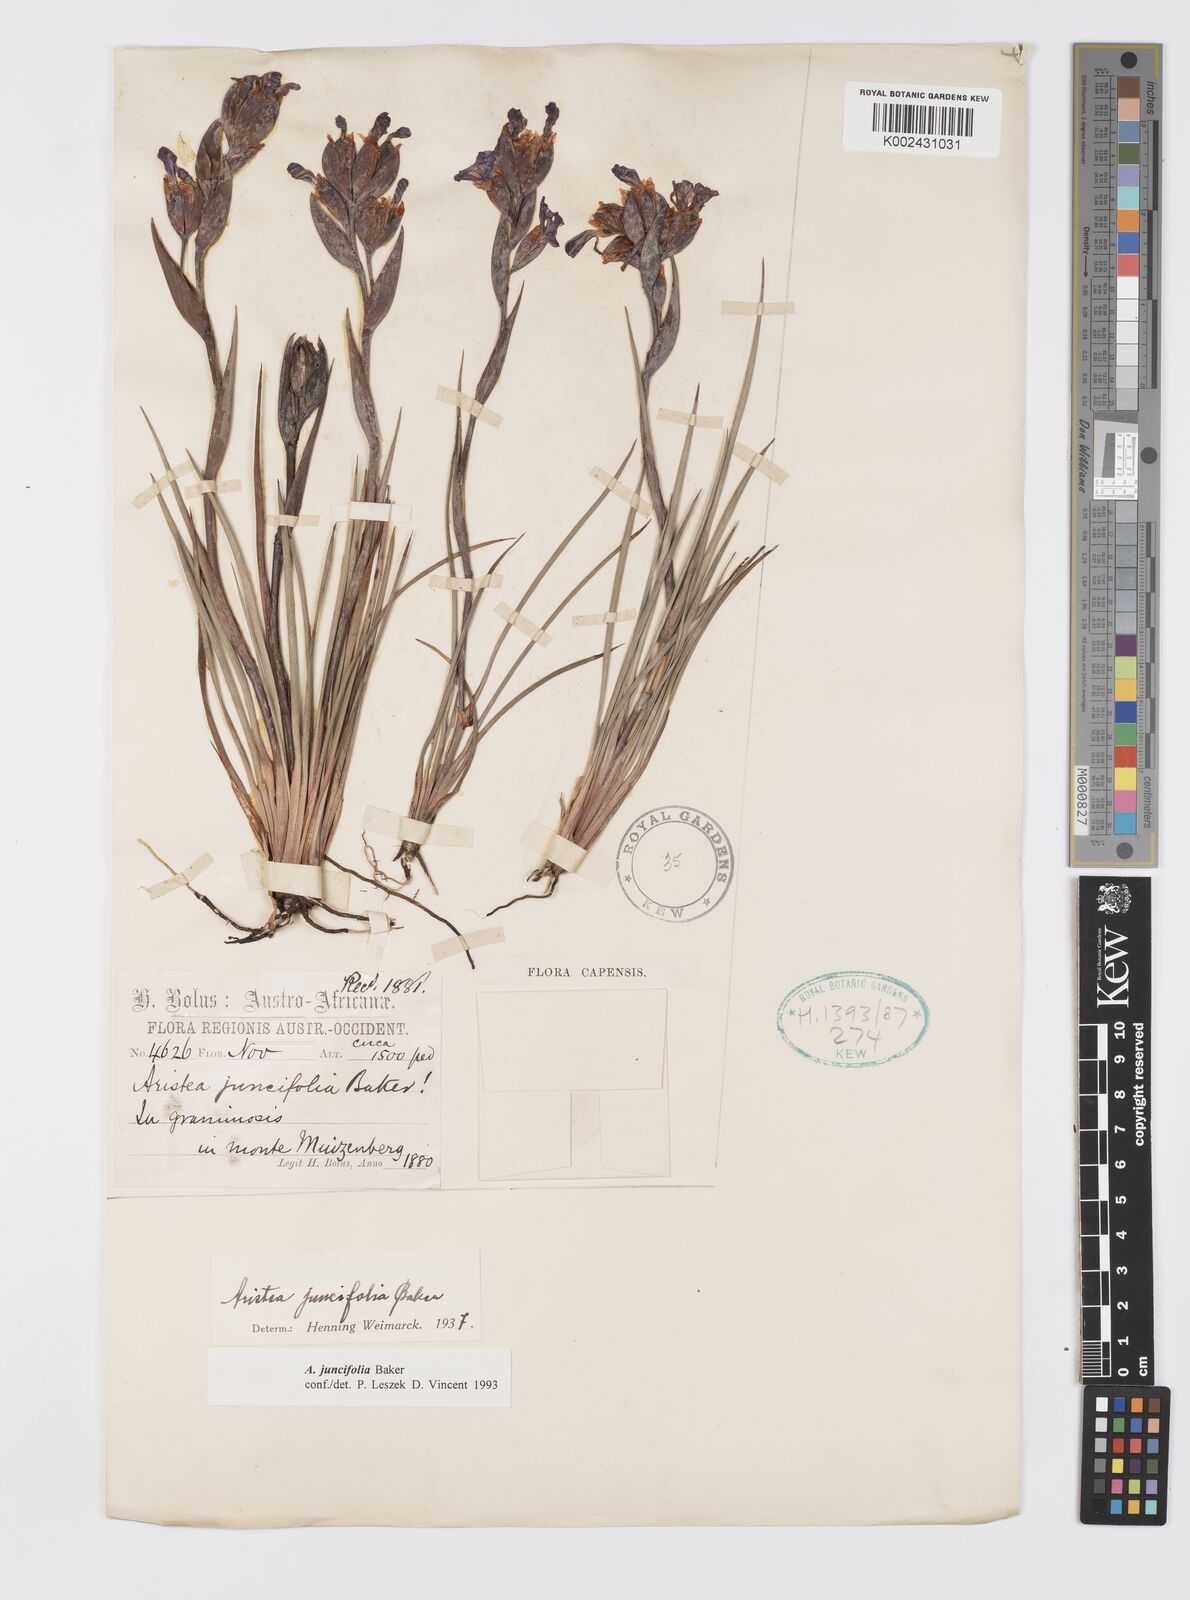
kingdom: Plantae
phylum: Tracheophyta
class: Liliopsida
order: Asparagales
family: Iridaceae
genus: Aristea
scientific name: Aristea juncifolia
